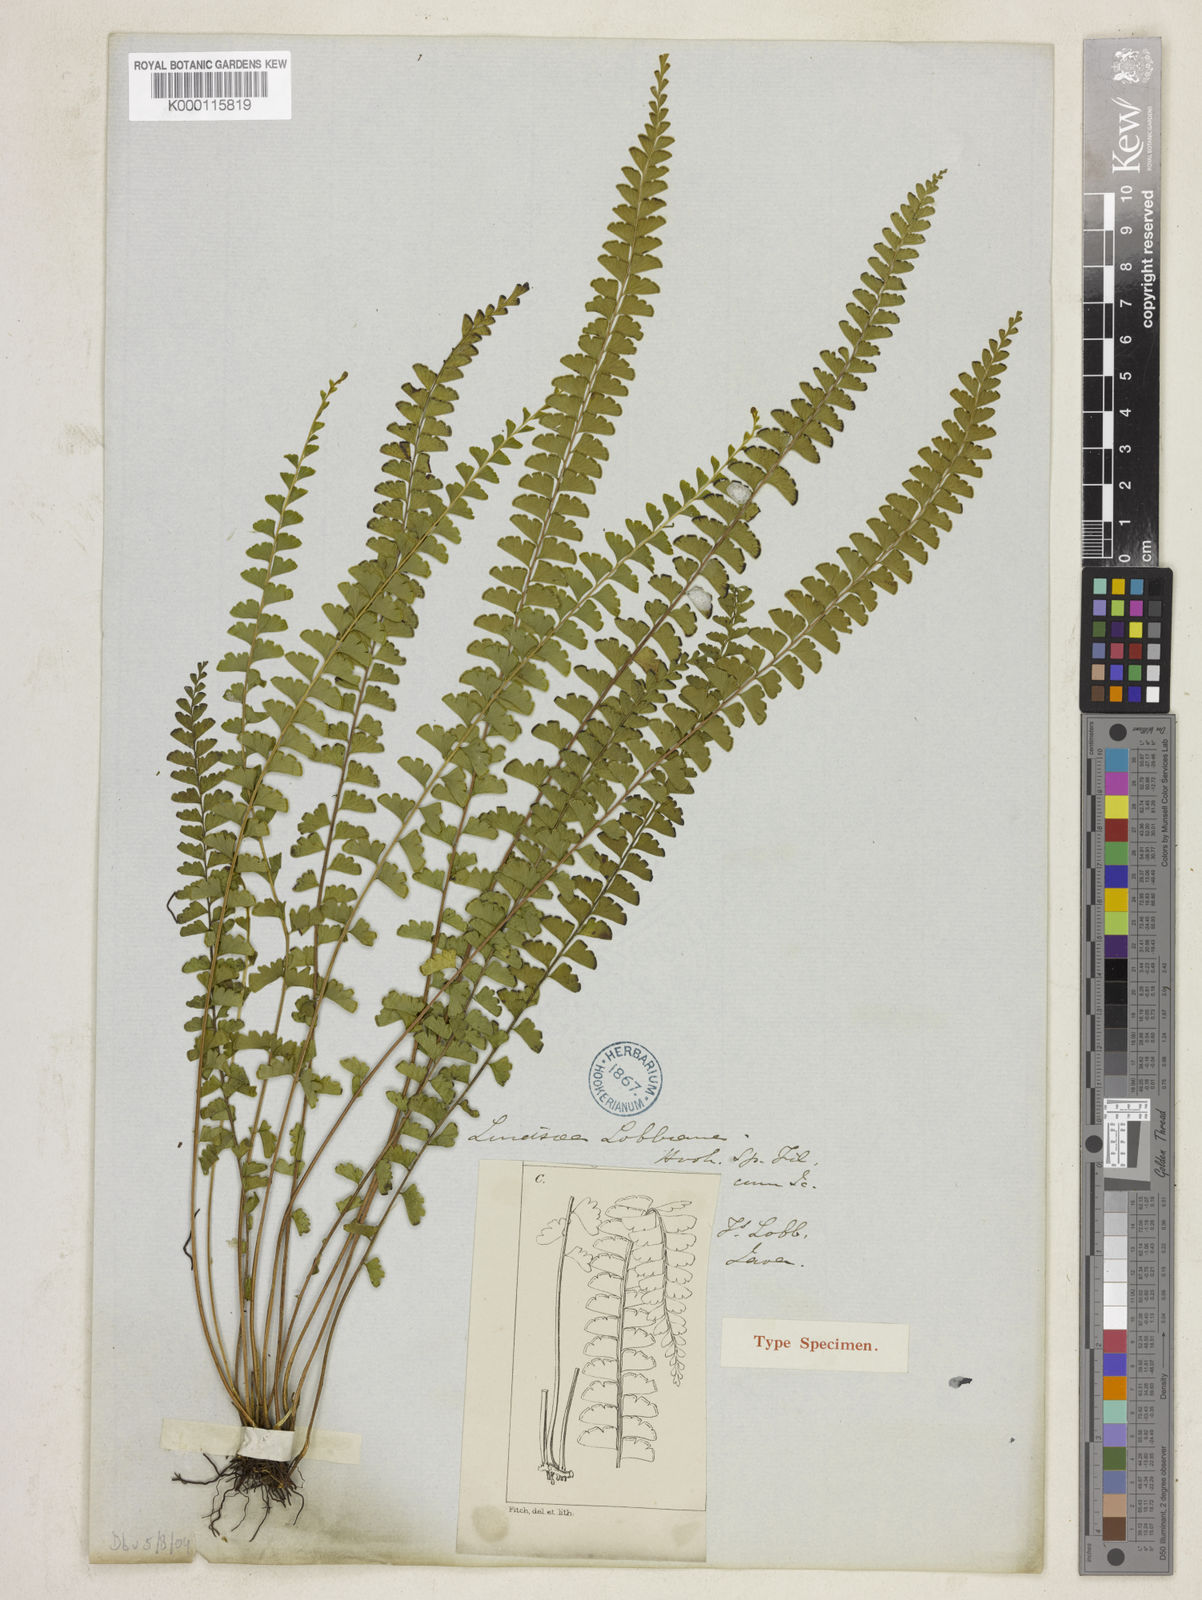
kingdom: Plantae
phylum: Tracheophyta
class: Polypodiopsida
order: Polypodiales
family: Lindsaeaceae
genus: Lindsaea
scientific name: Lindsaea lucida
